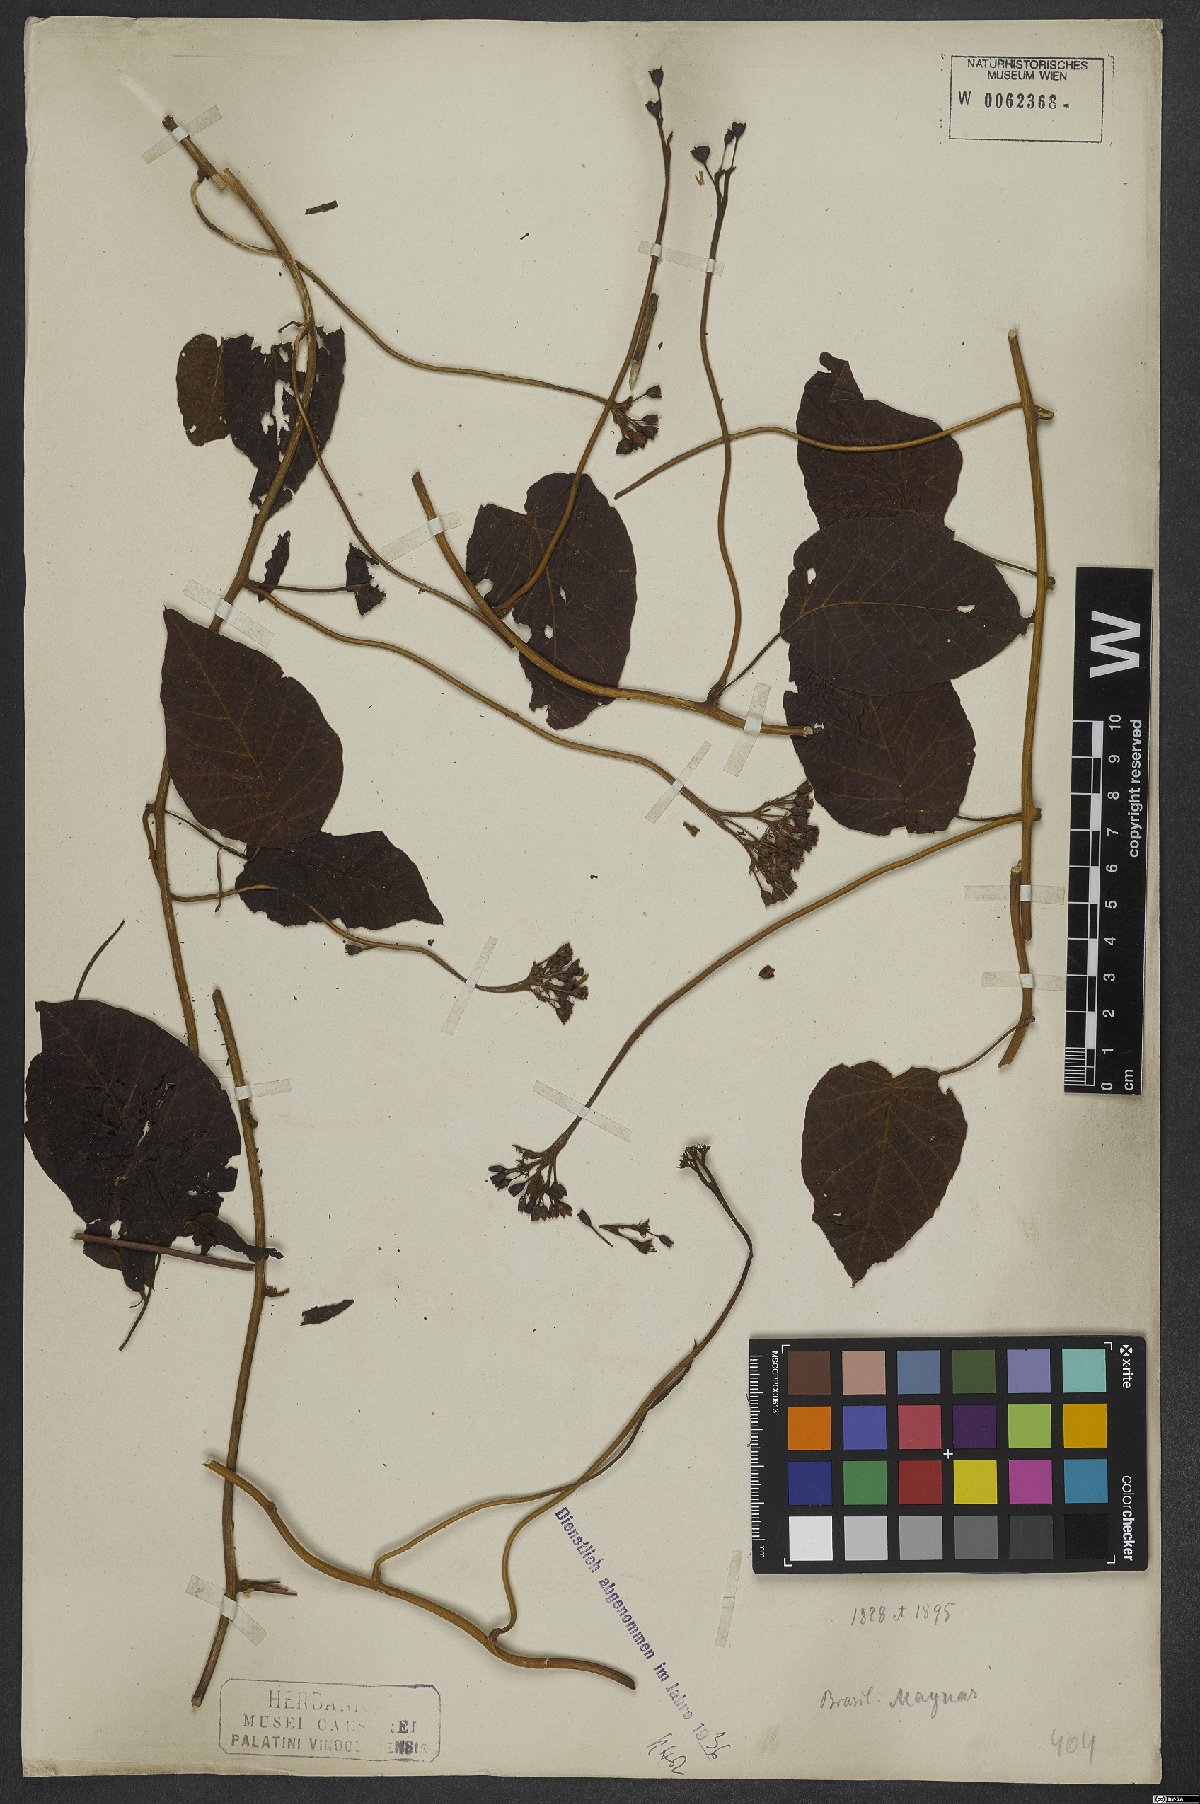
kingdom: Plantae
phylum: Tracheophyta
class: Magnoliopsida
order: Solanales
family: Convolvulaceae
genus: Jacquemontia
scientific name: Jacquemontia velutina
